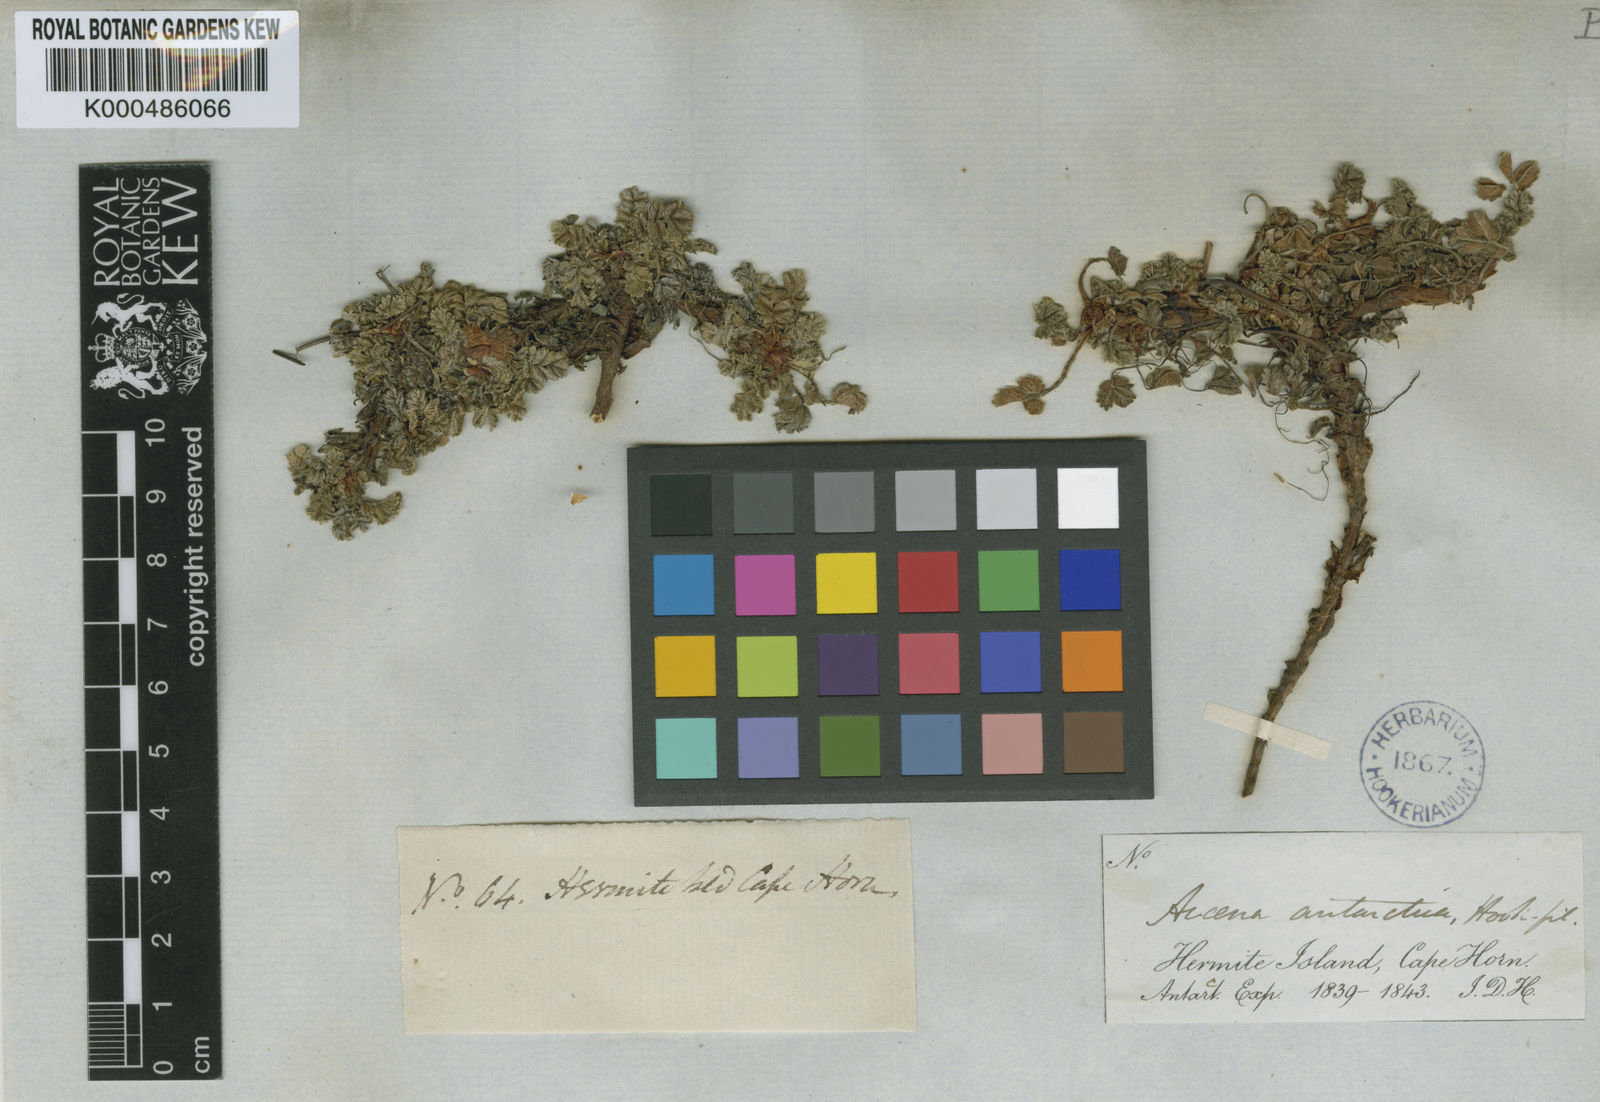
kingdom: Plantae
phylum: Tracheophyta
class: Magnoliopsida
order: Rosales
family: Rosaceae
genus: Acaena
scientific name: Acaena antarctica
